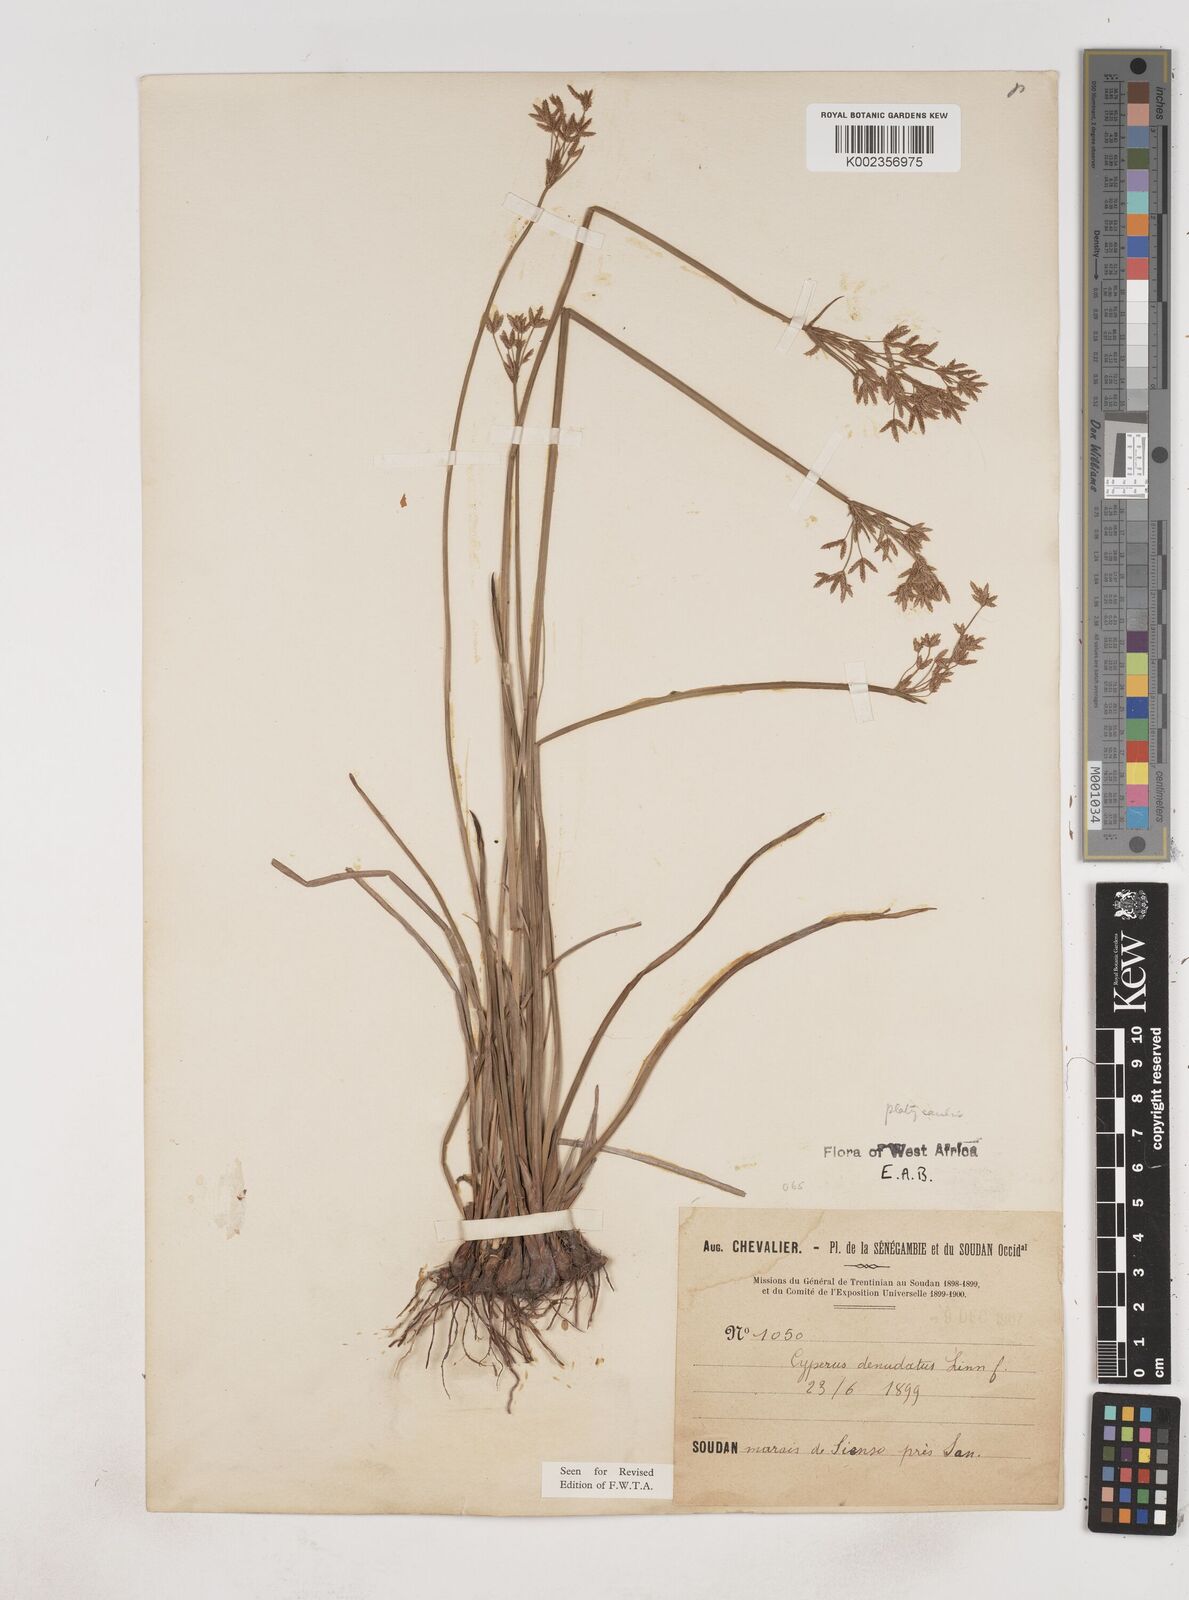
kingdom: Plantae
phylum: Tracheophyta
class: Liliopsida
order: Poales
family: Cyperaceae
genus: Cyperus
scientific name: Cyperus denudatus
